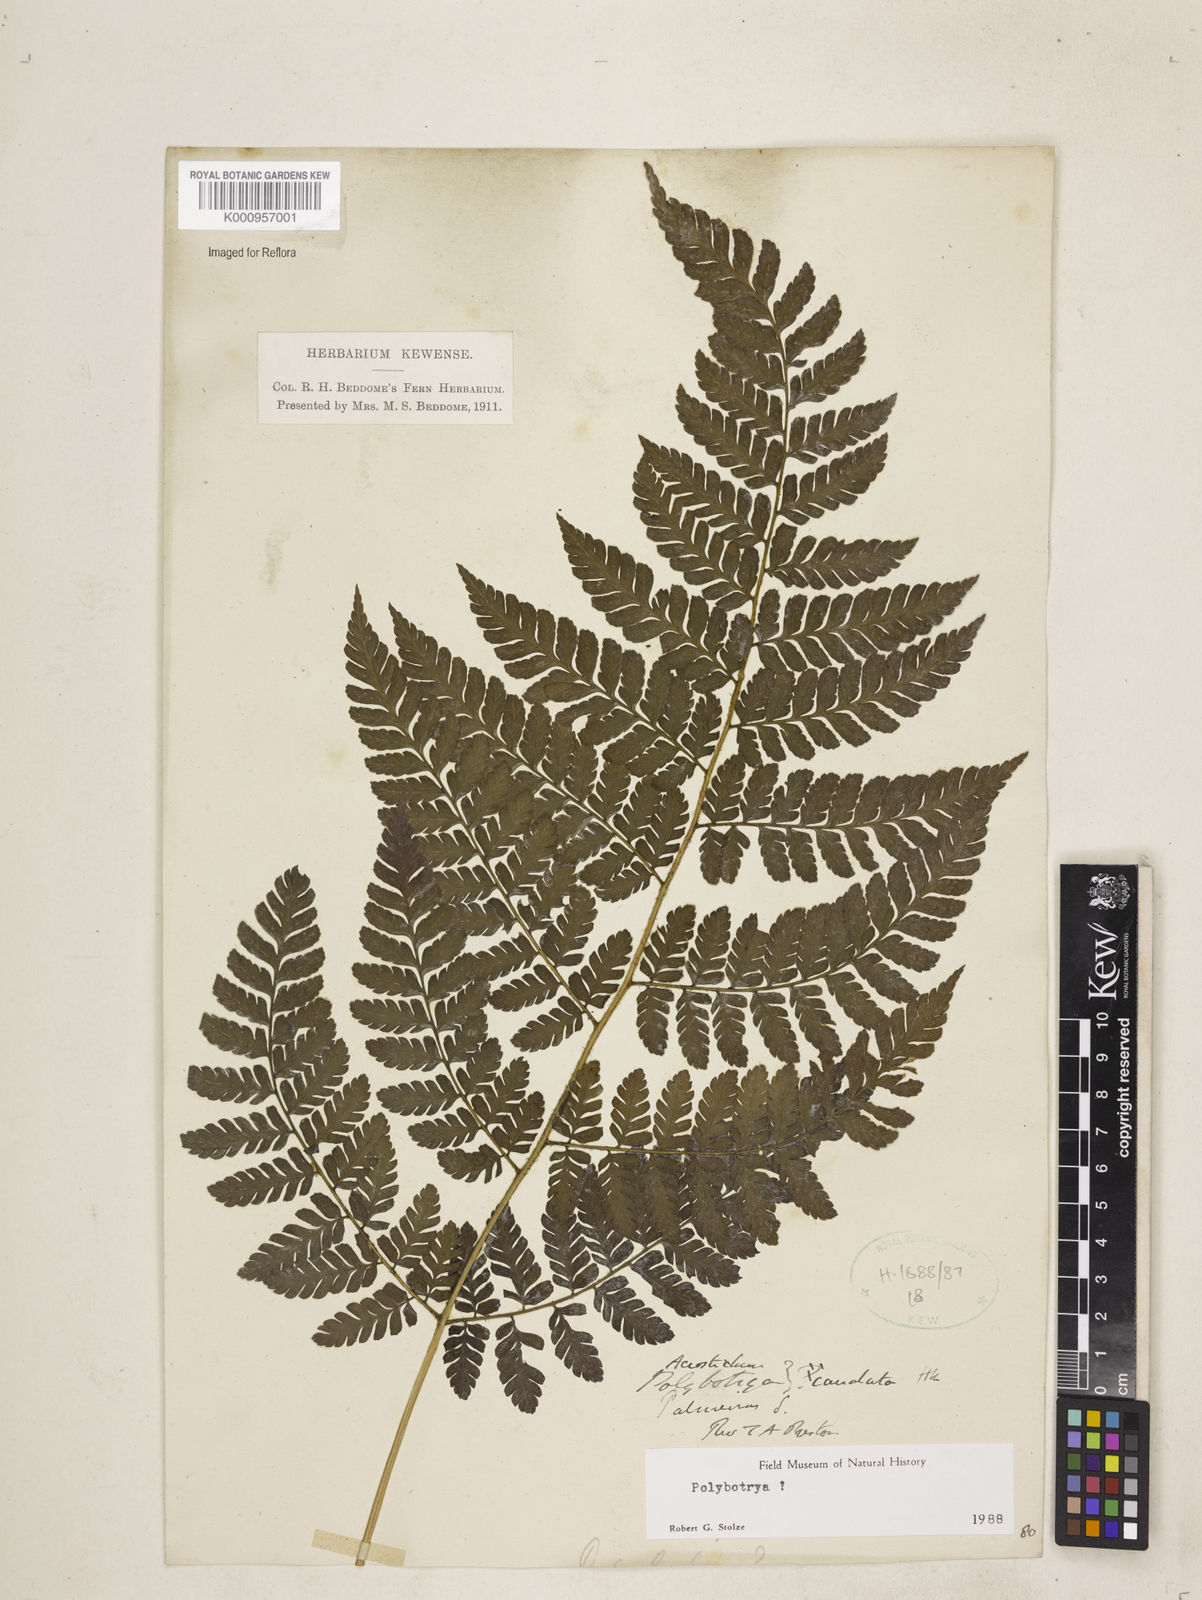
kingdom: Plantae
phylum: Tracheophyta
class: Polypodiopsida
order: Polypodiales
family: Dryopteridaceae
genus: Polybotrya
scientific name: Polybotrya
